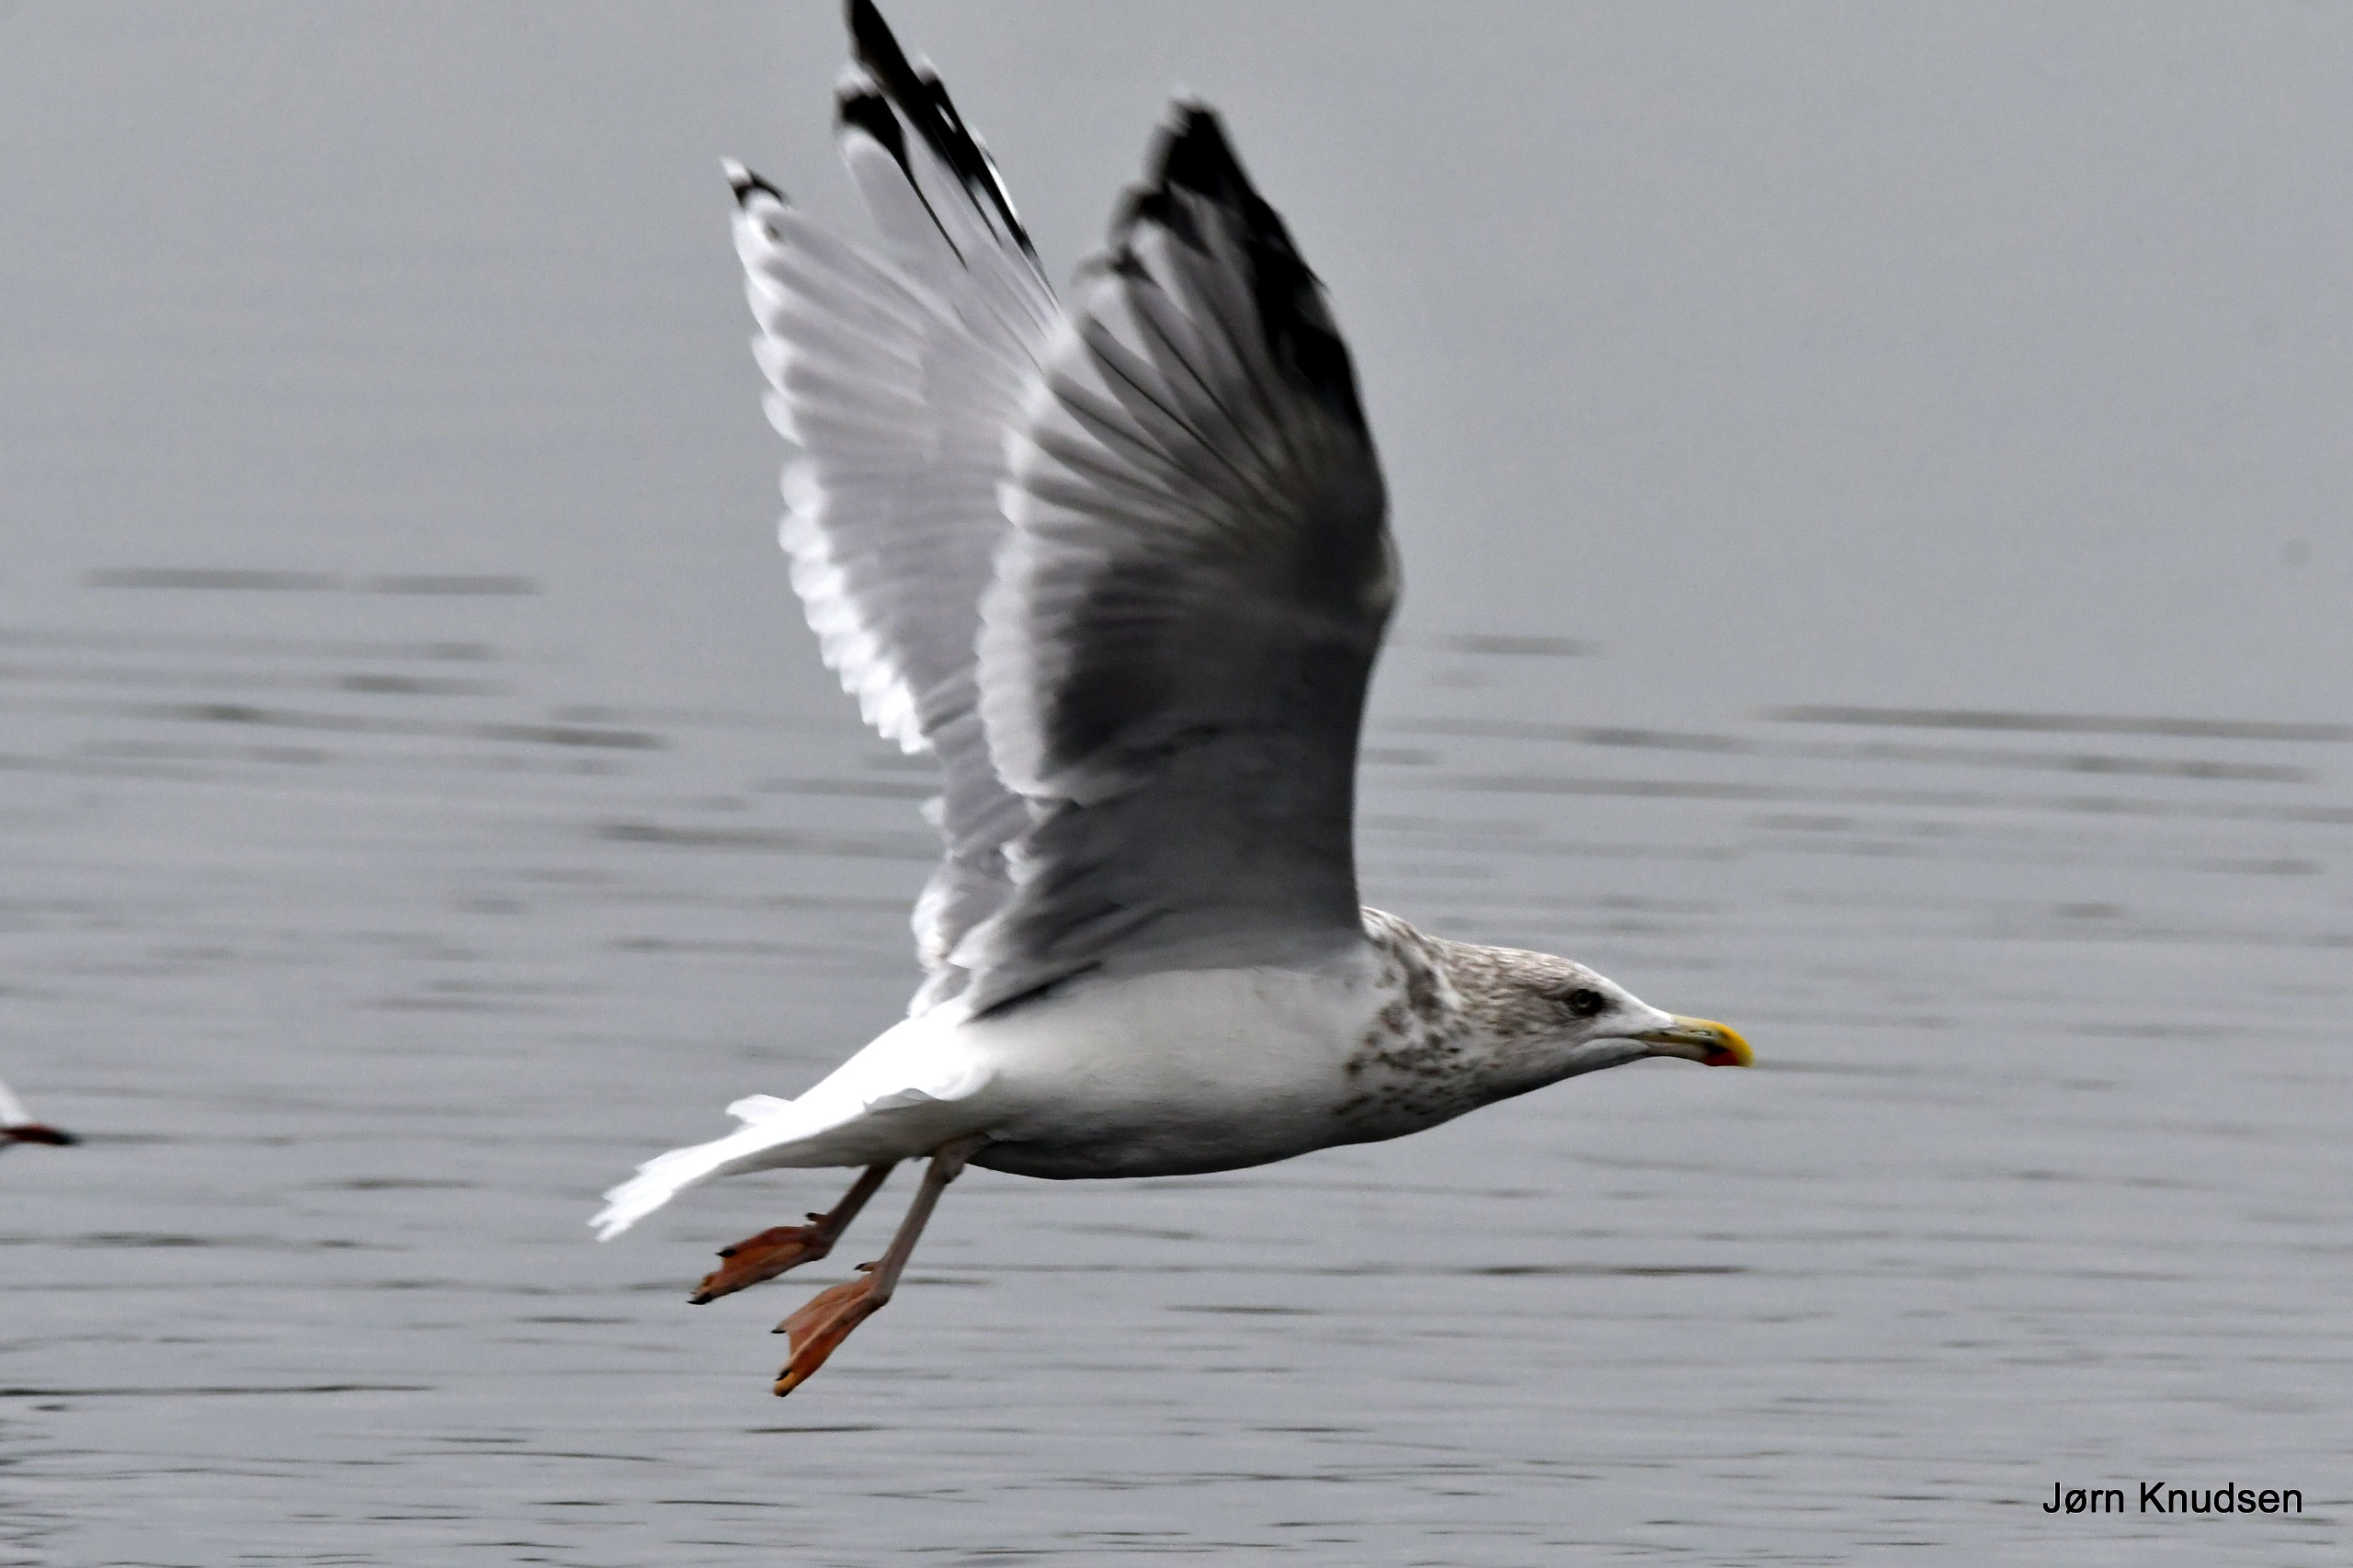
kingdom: Animalia
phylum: Chordata
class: Aves
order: Charadriiformes
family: Laridae
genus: Larus
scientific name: Larus argentatus
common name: Sølvmåge
